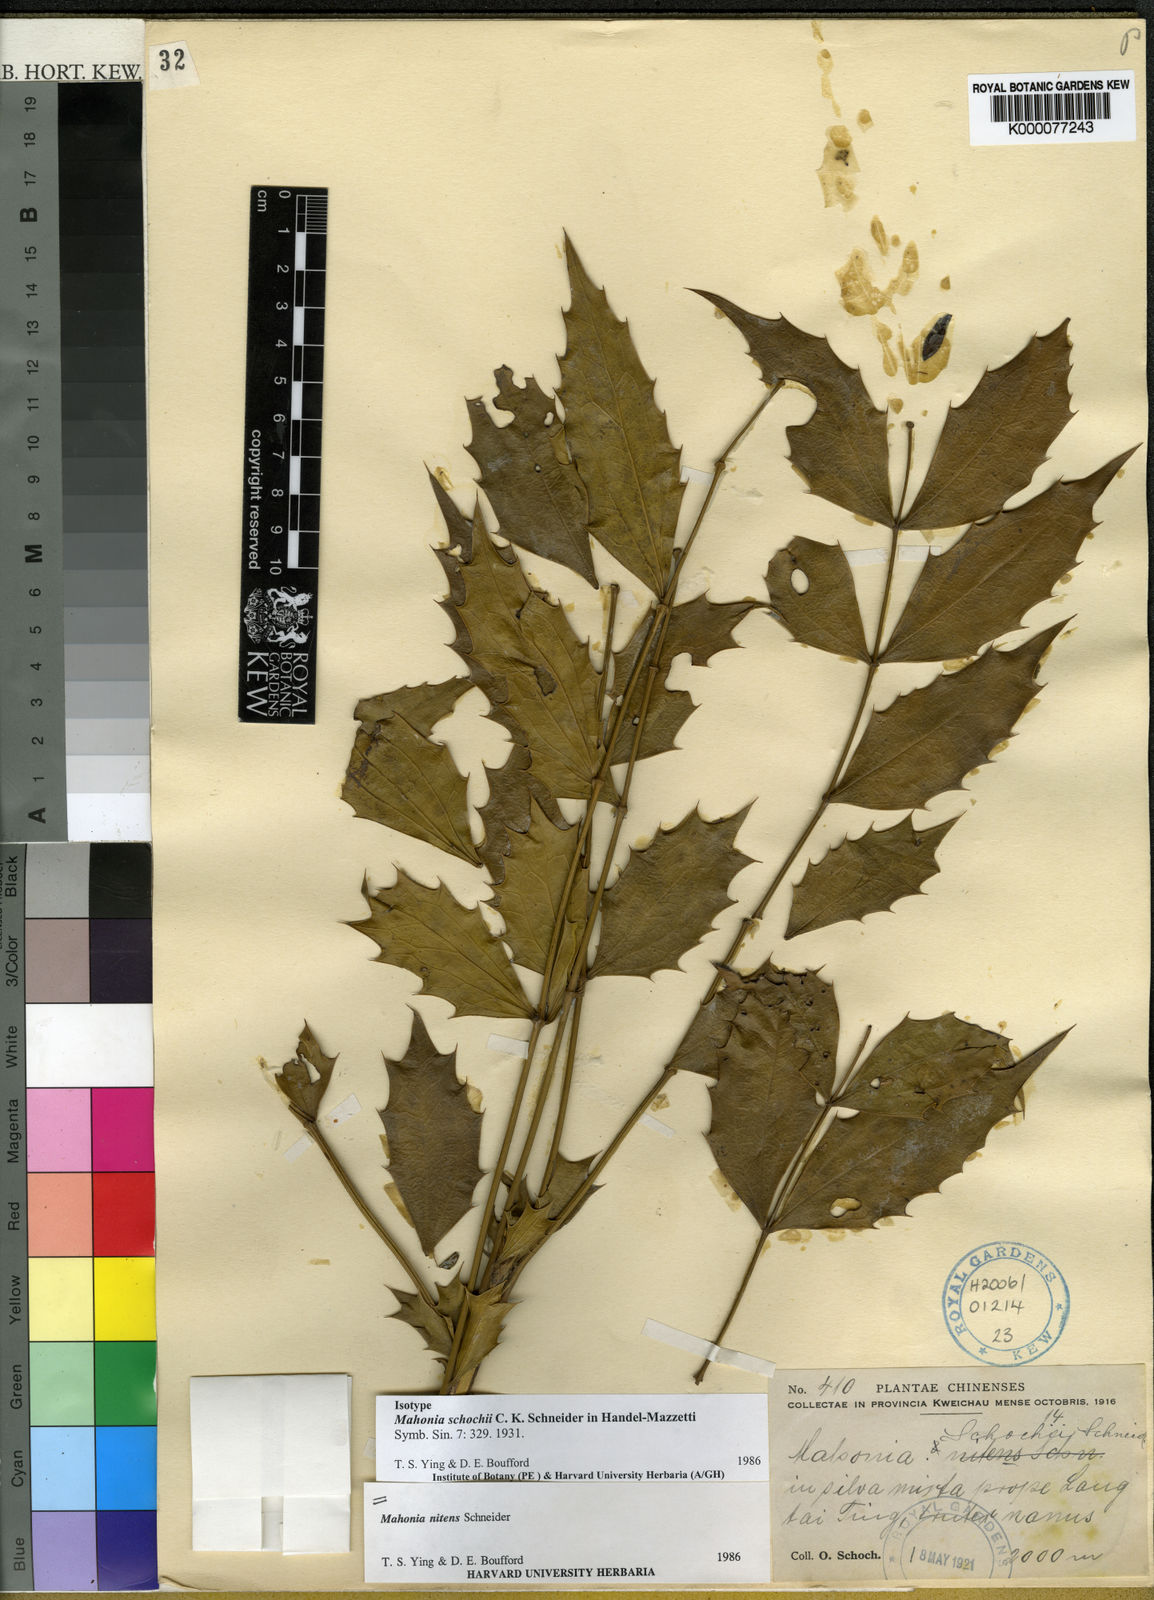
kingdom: Plantae
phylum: Tracheophyta
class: Magnoliopsida
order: Ranunculales
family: Berberidaceae
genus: Mahonia
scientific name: Mahonia
